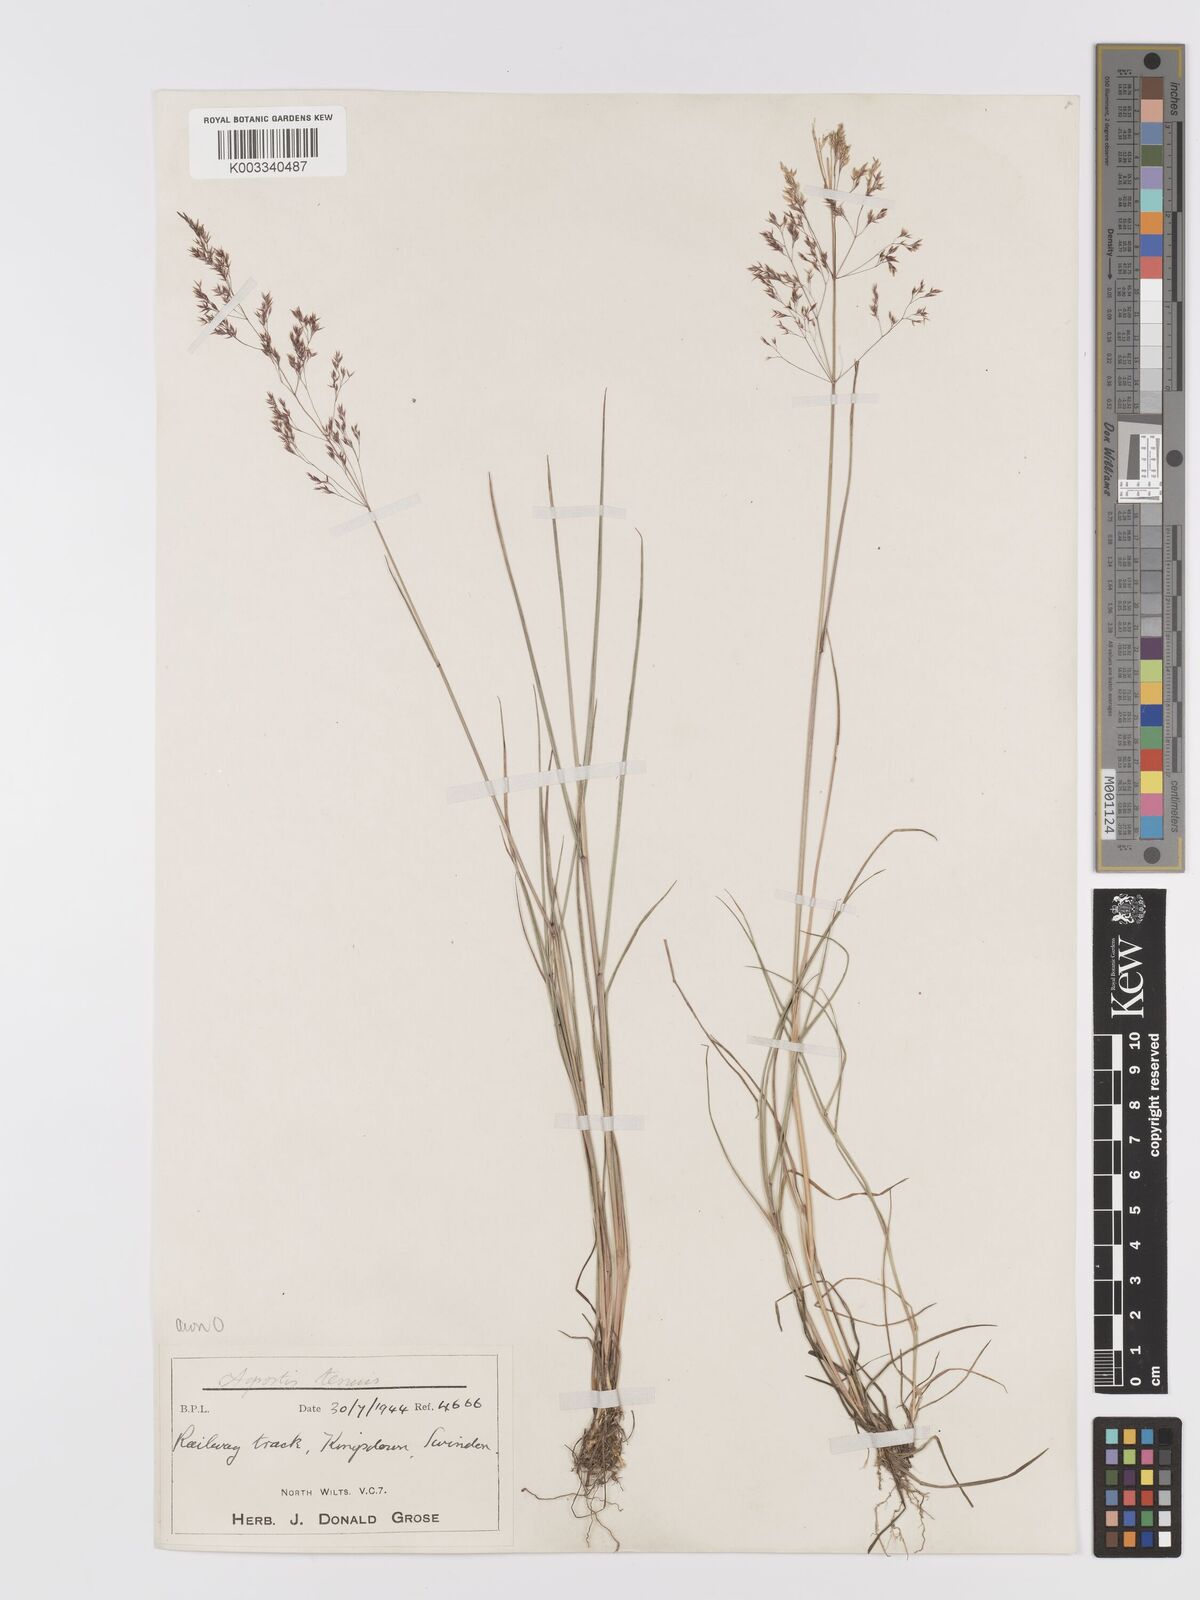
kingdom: Plantae
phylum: Tracheophyta
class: Liliopsida
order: Poales
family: Poaceae
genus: Agrostis
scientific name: Agrostis capillaris
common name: Colonial bentgrass
